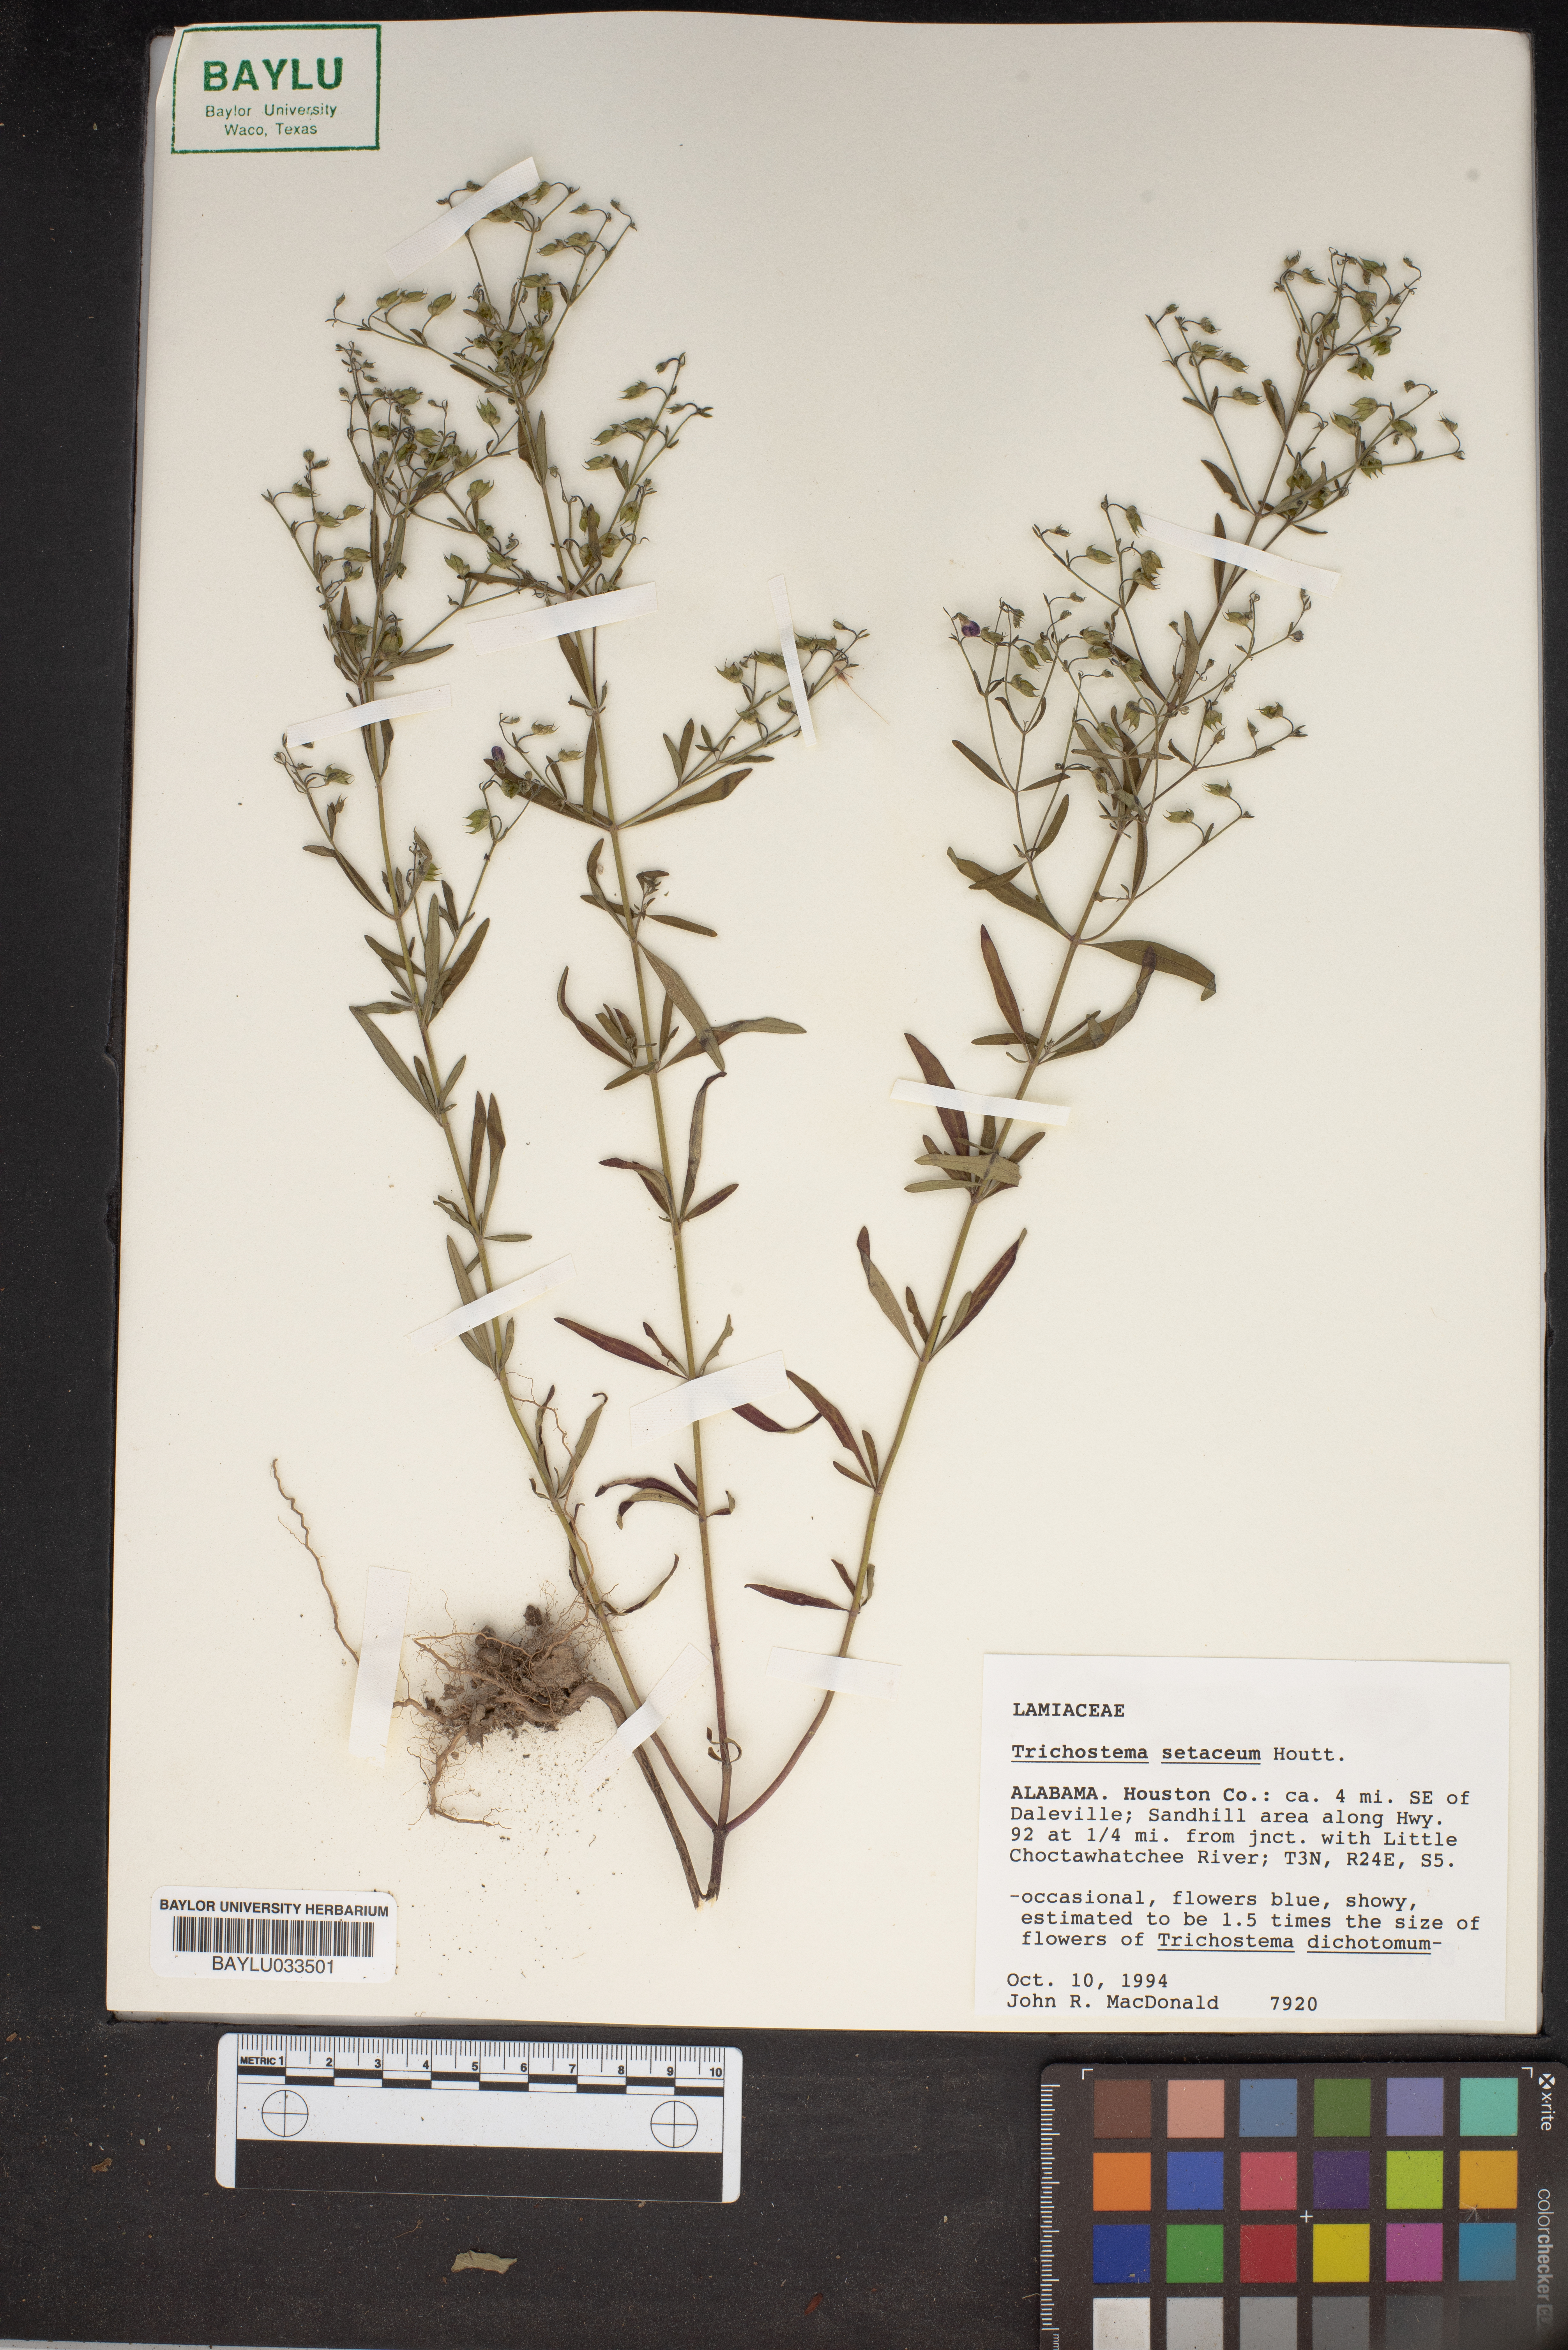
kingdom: Plantae
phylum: Tracheophyta
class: Magnoliopsida
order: Lamiales
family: Lamiaceae
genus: Trichostema
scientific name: Trichostema setaceum
